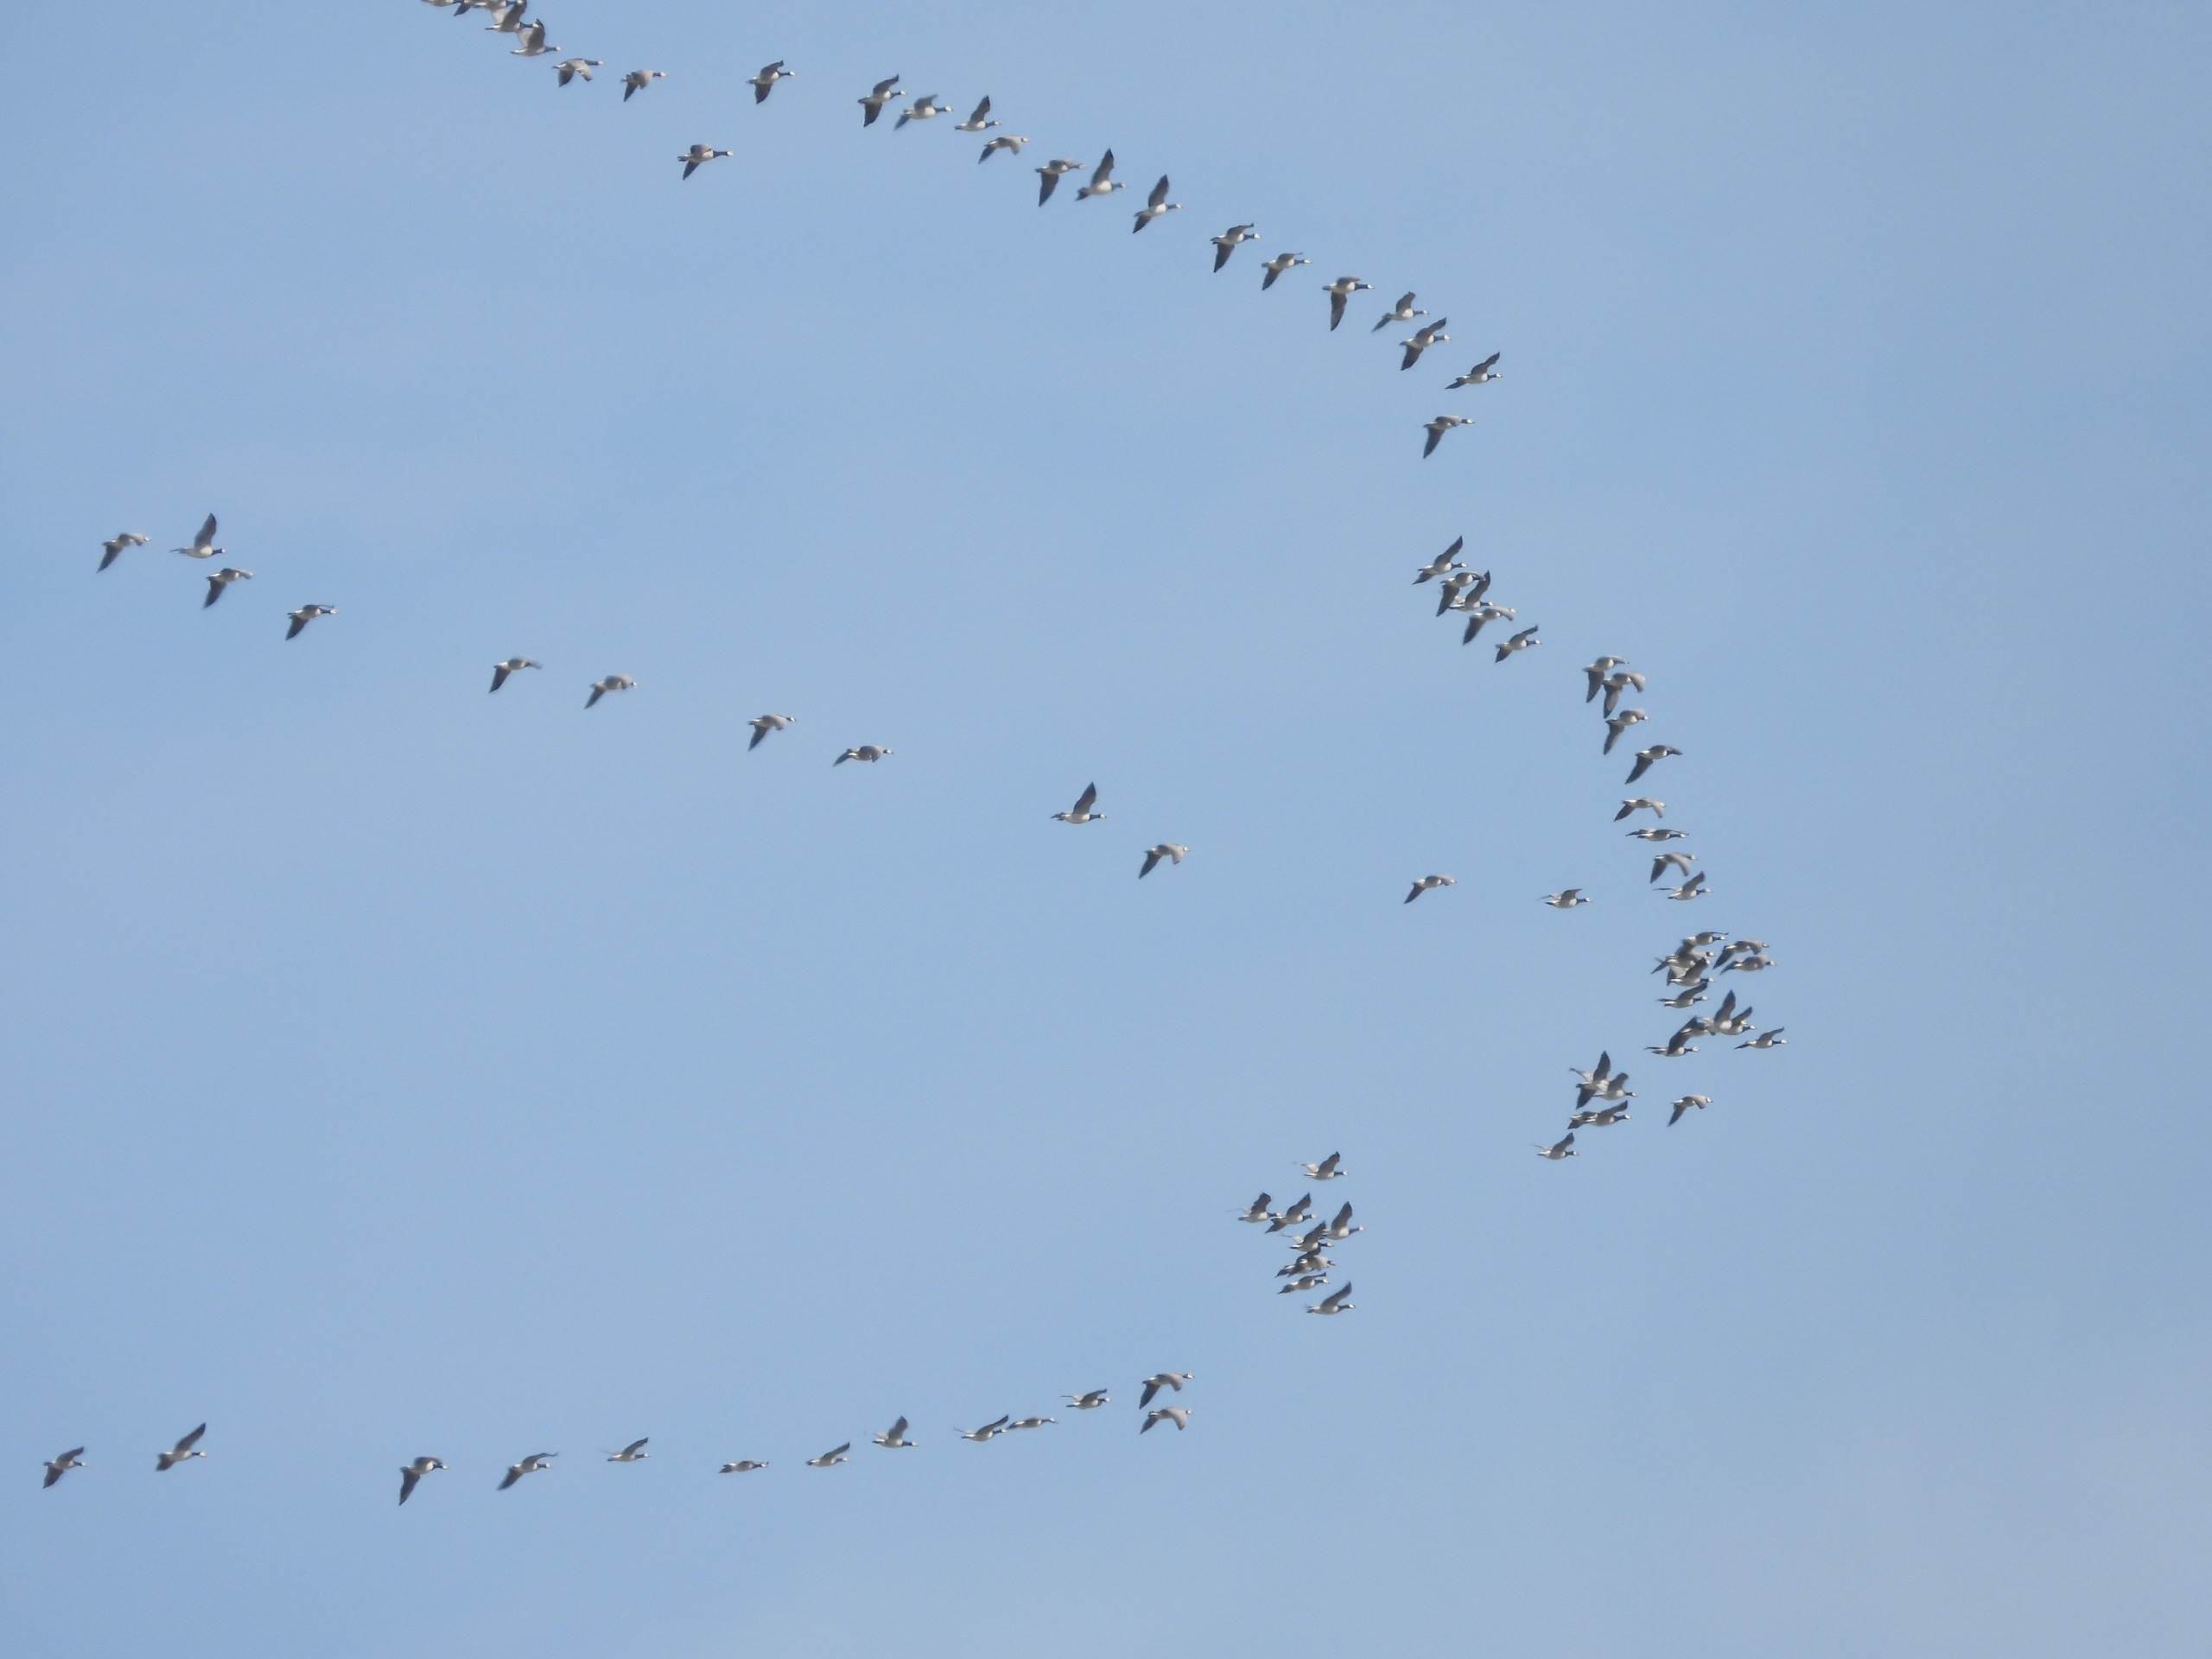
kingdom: Animalia
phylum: Chordata
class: Aves
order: Anseriformes
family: Anatidae
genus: Branta
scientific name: Branta leucopsis
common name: Bramgås
